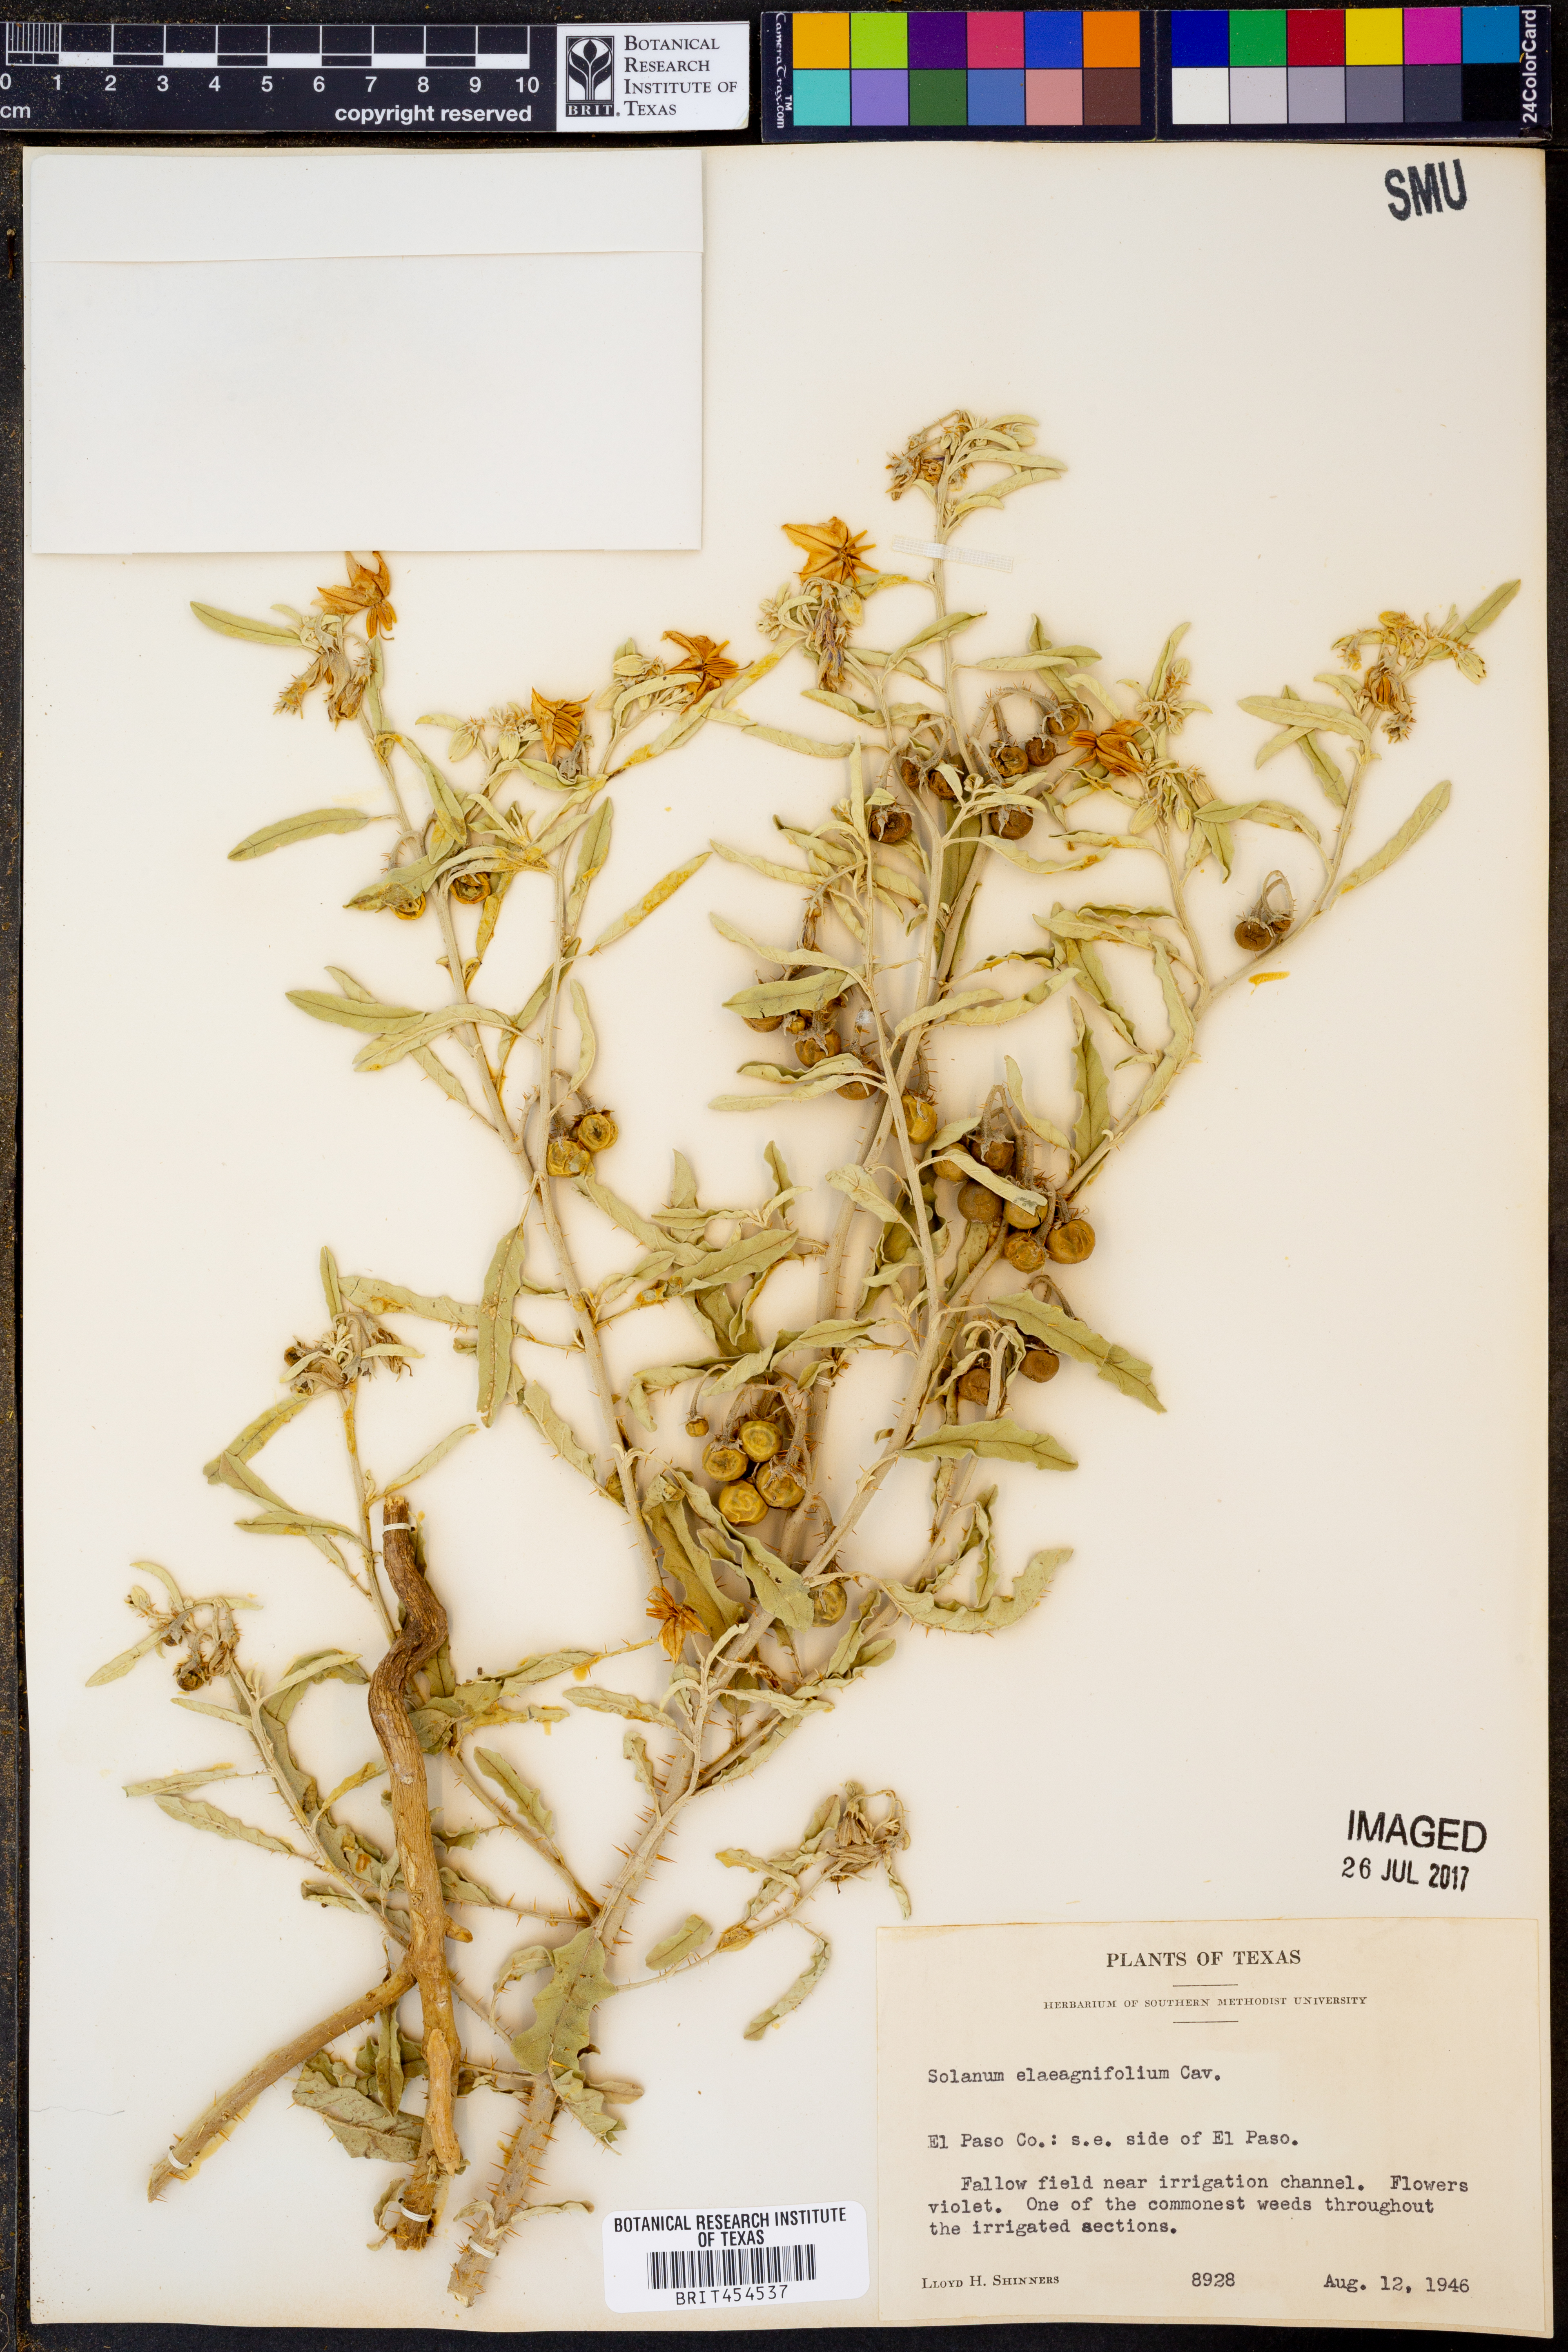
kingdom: Plantae
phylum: Tracheophyta
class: Magnoliopsida
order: Solanales
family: Solanaceae
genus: Solanum
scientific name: Solanum elaeagnifolium
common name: Silverleaf nightshade
